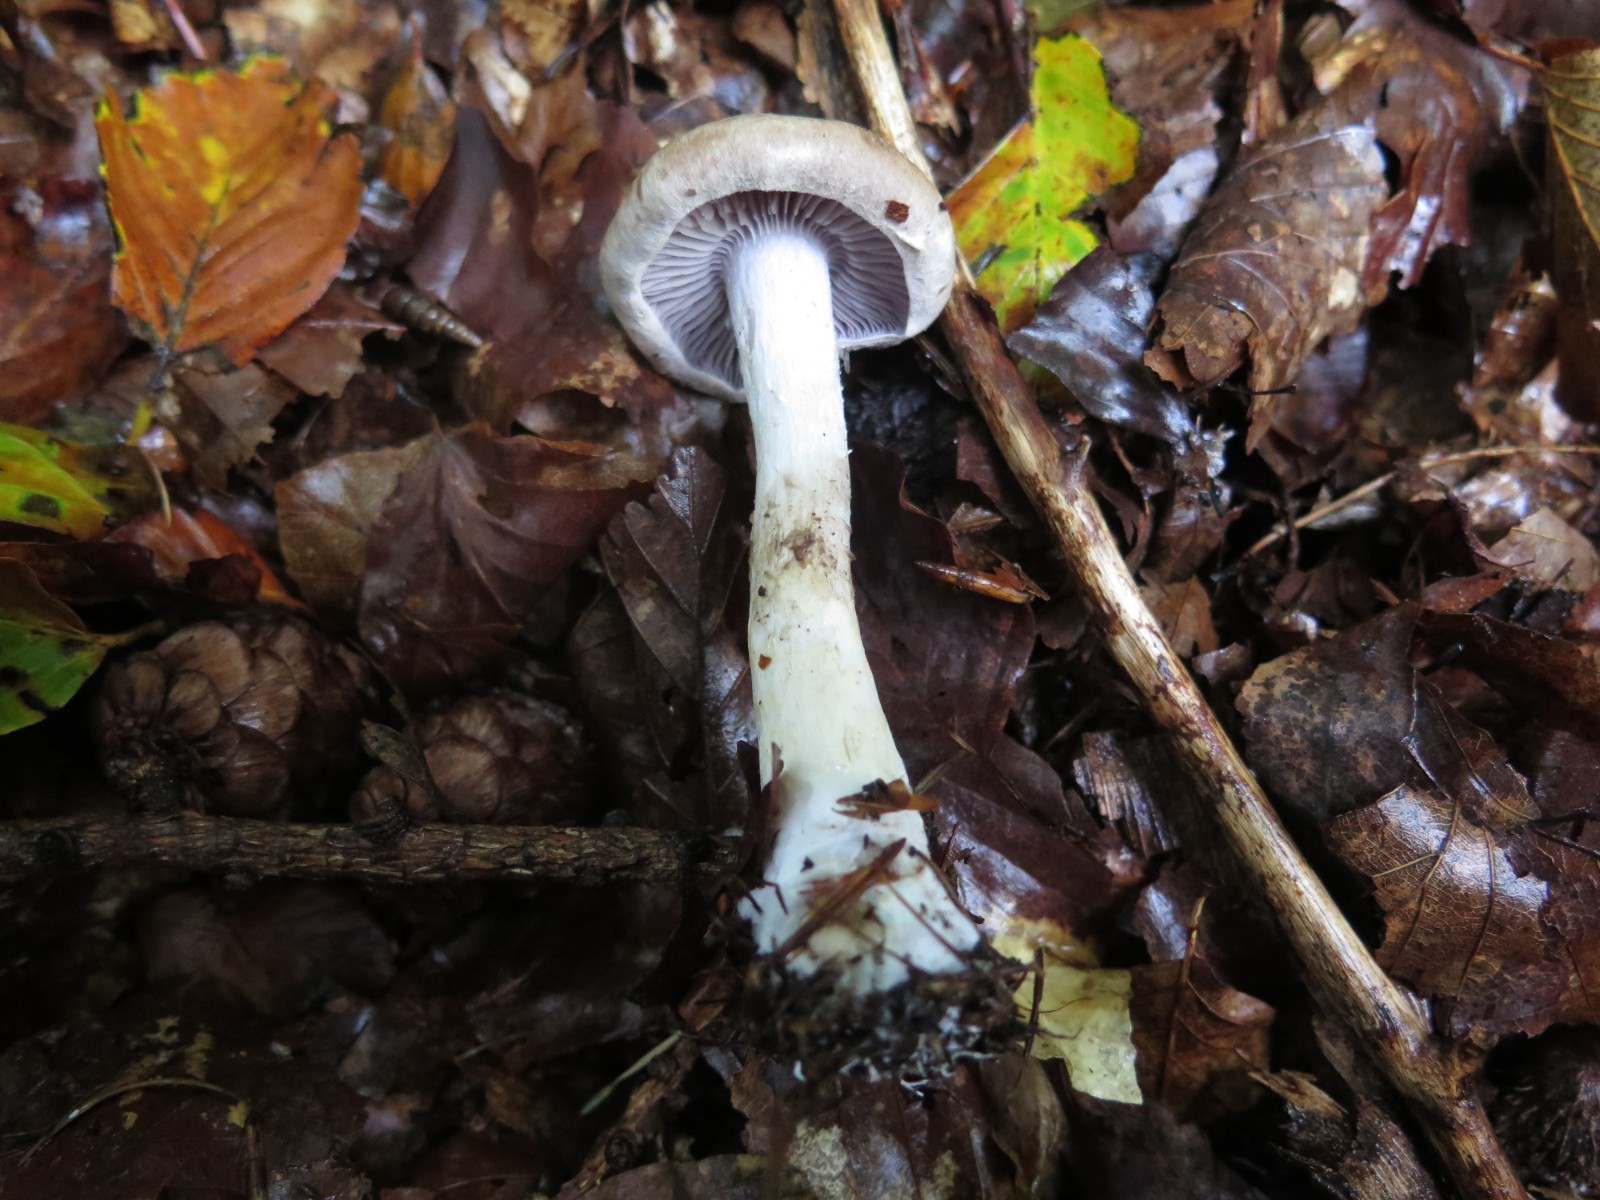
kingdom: Fungi
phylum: Basidiomycota
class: Agaricomycetes
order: Agaricales
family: Cortinariaceae
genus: Cortinarius
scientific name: Cortinarius
